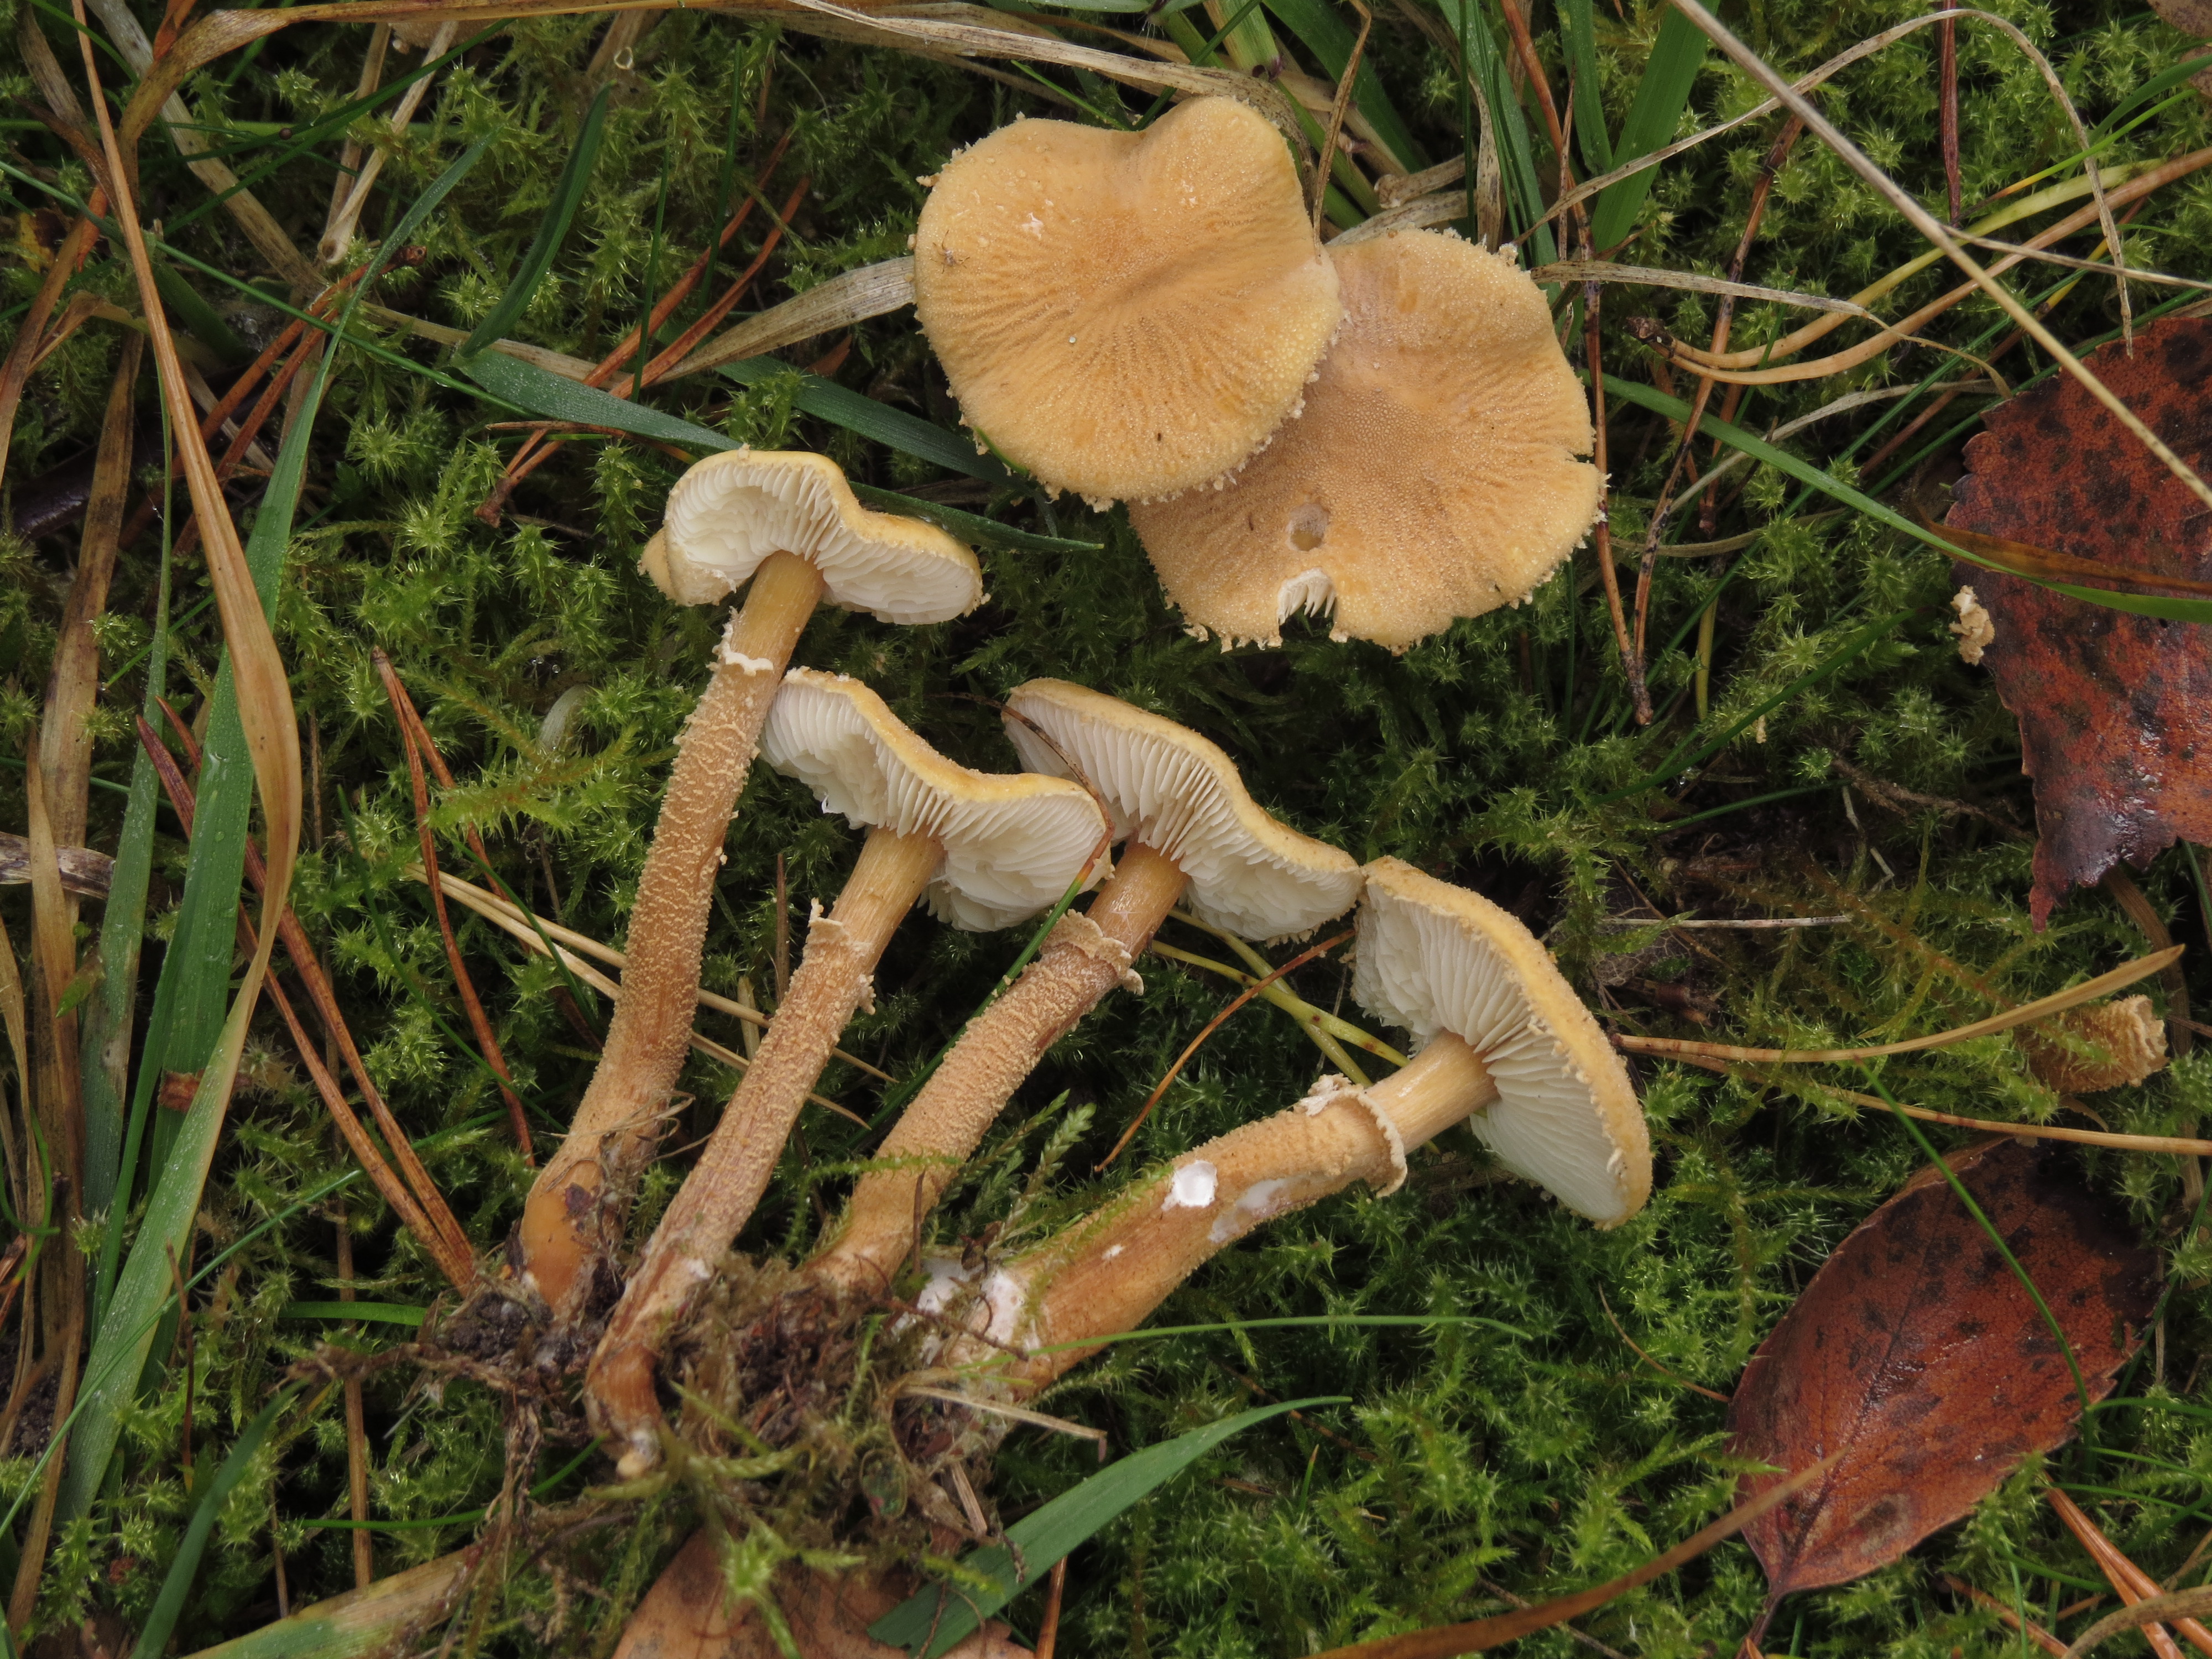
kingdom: Fungi
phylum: Basidiomycota
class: Agaricomycetes
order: Agaricales
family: Tricholomataceae
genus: Cystoderma
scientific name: Cystoderma amianthinum
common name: Earthy powdercap
